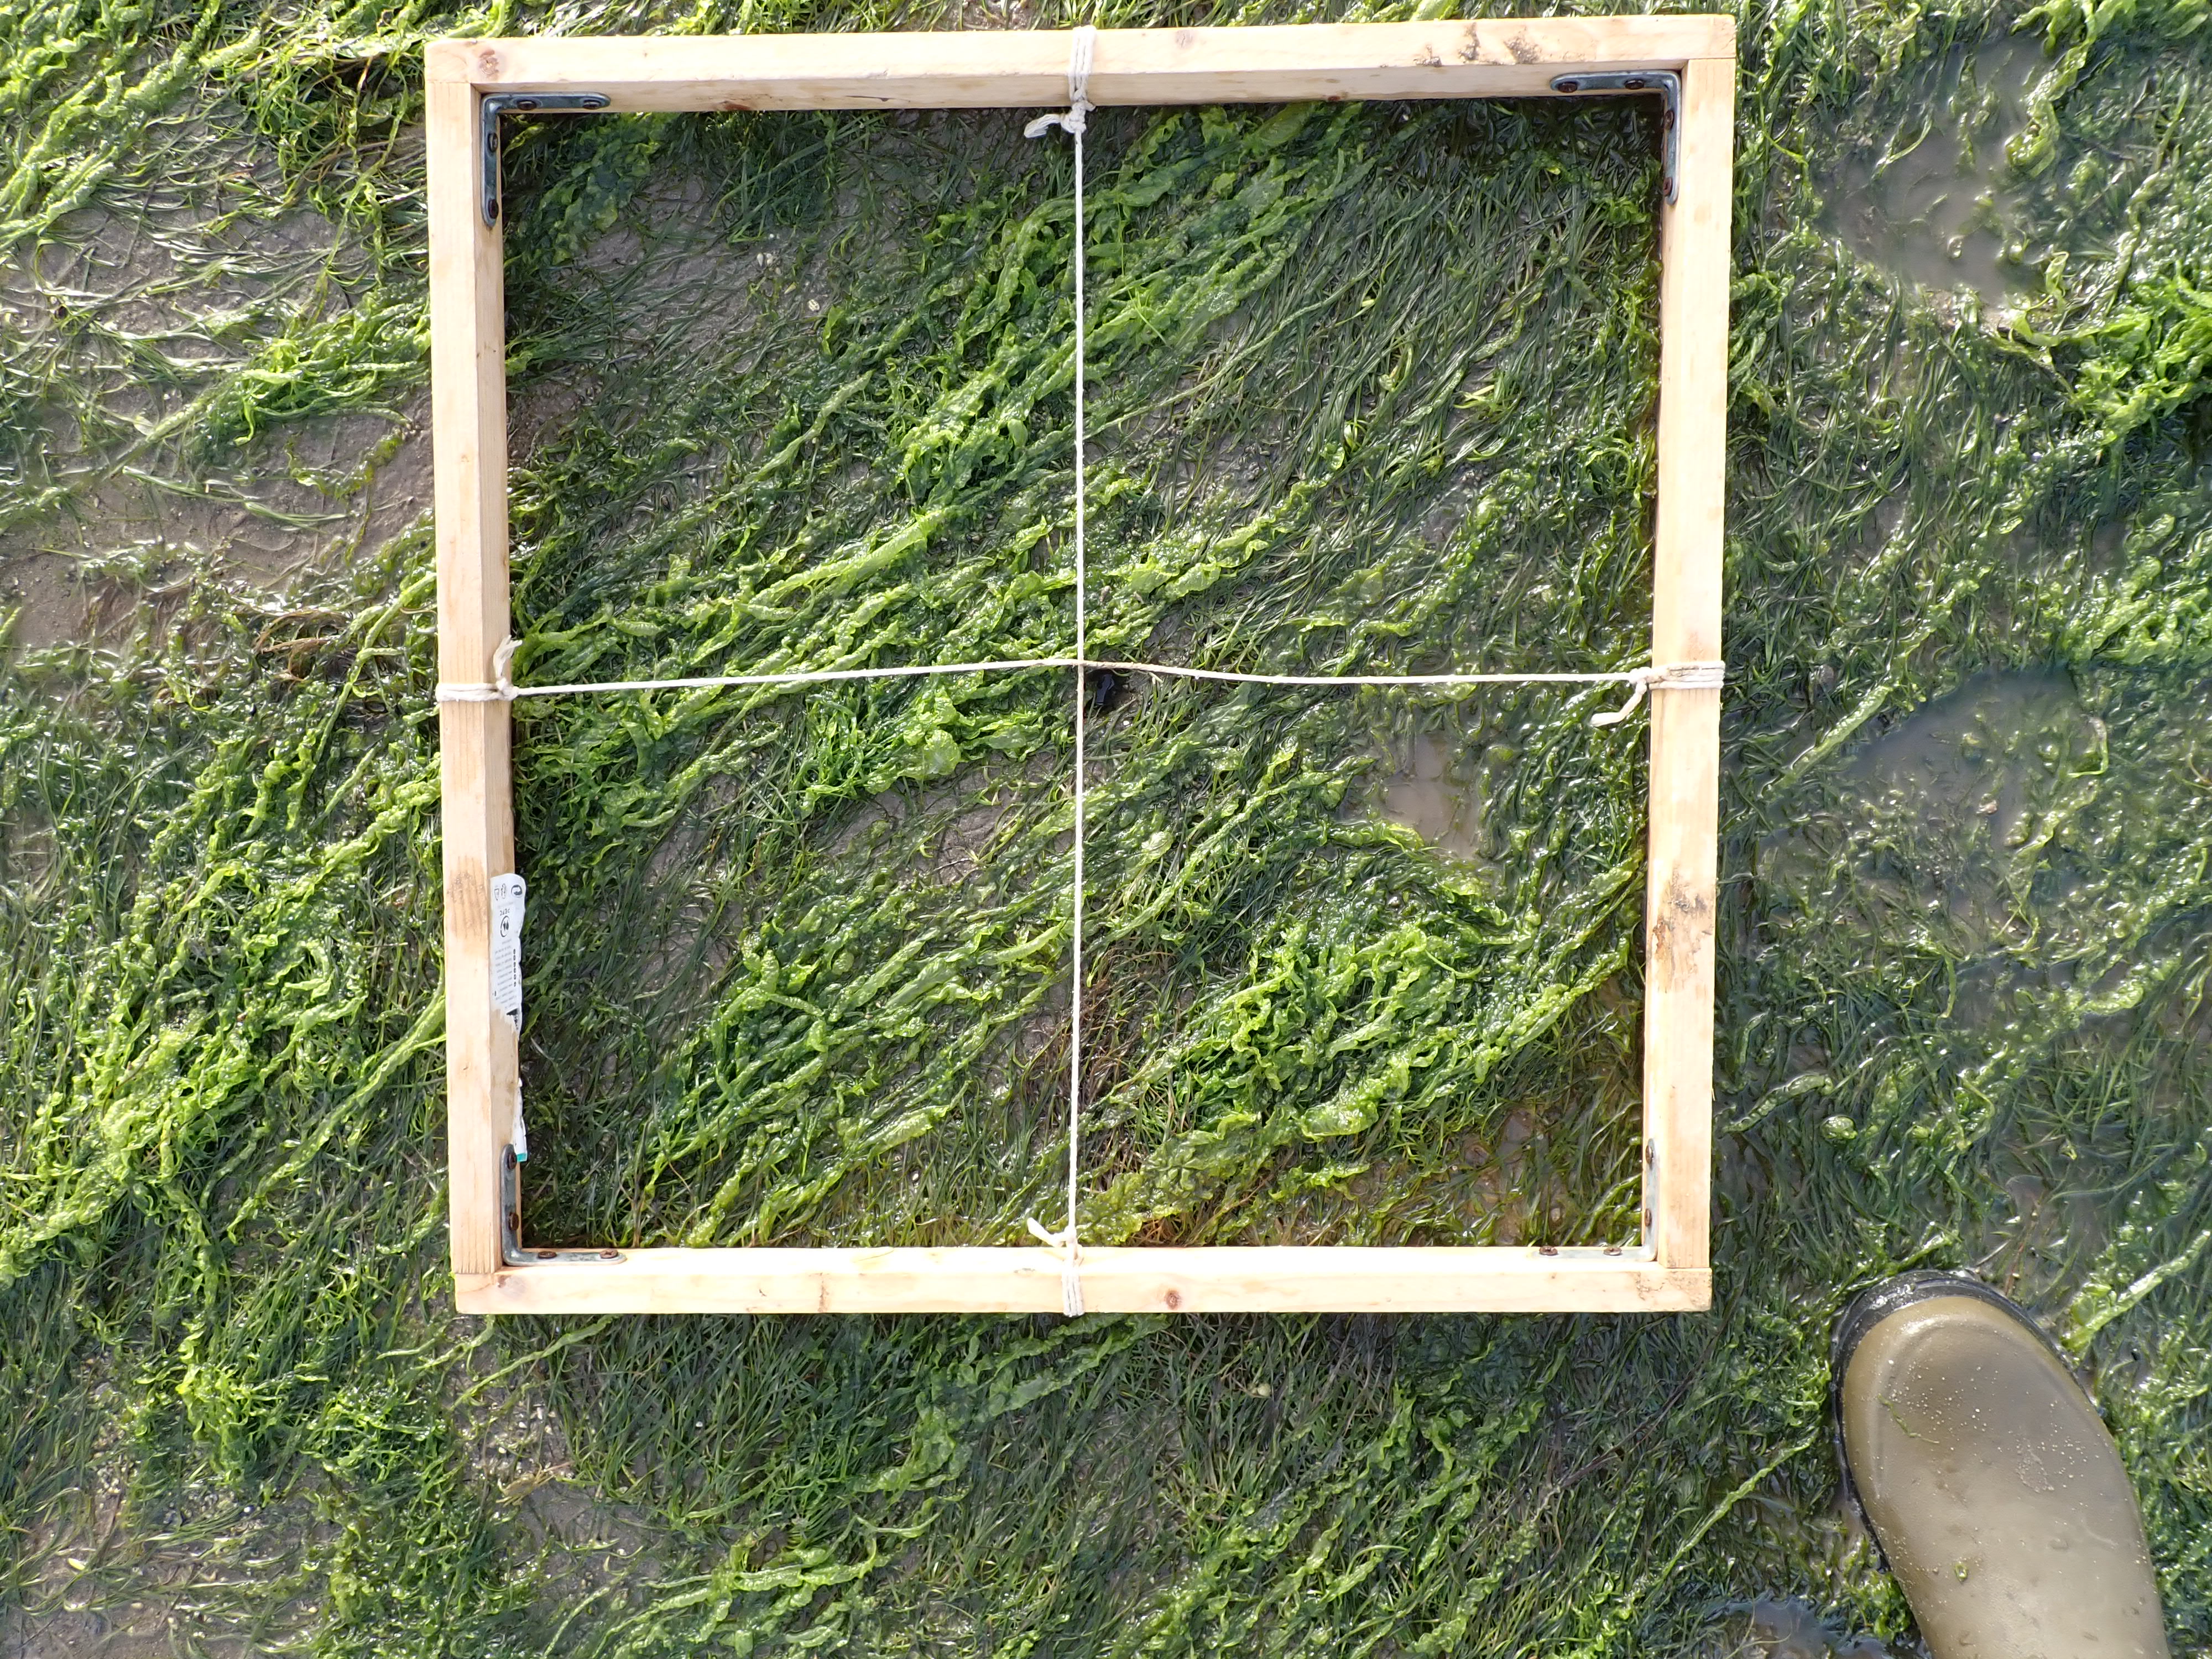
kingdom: Plantae
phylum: Chlorophyta
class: Ulvophyceae
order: Ulvales
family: Ulvaceae
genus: Ulva
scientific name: Ulva
